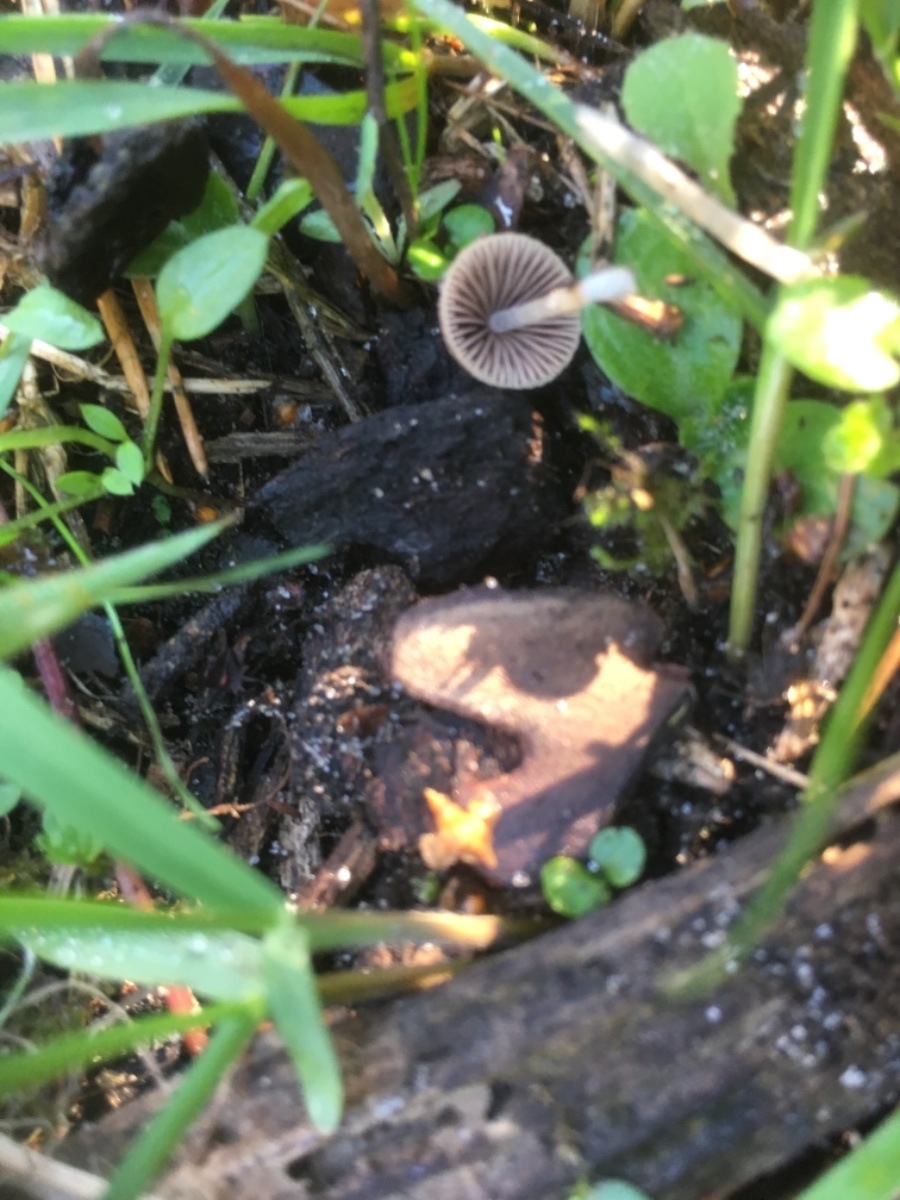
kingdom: Fungi
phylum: Basidiomycota
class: Agaricomycetes
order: Agaricales
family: Psathyrellaceae
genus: Psathyrella
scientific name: Psathyrella
